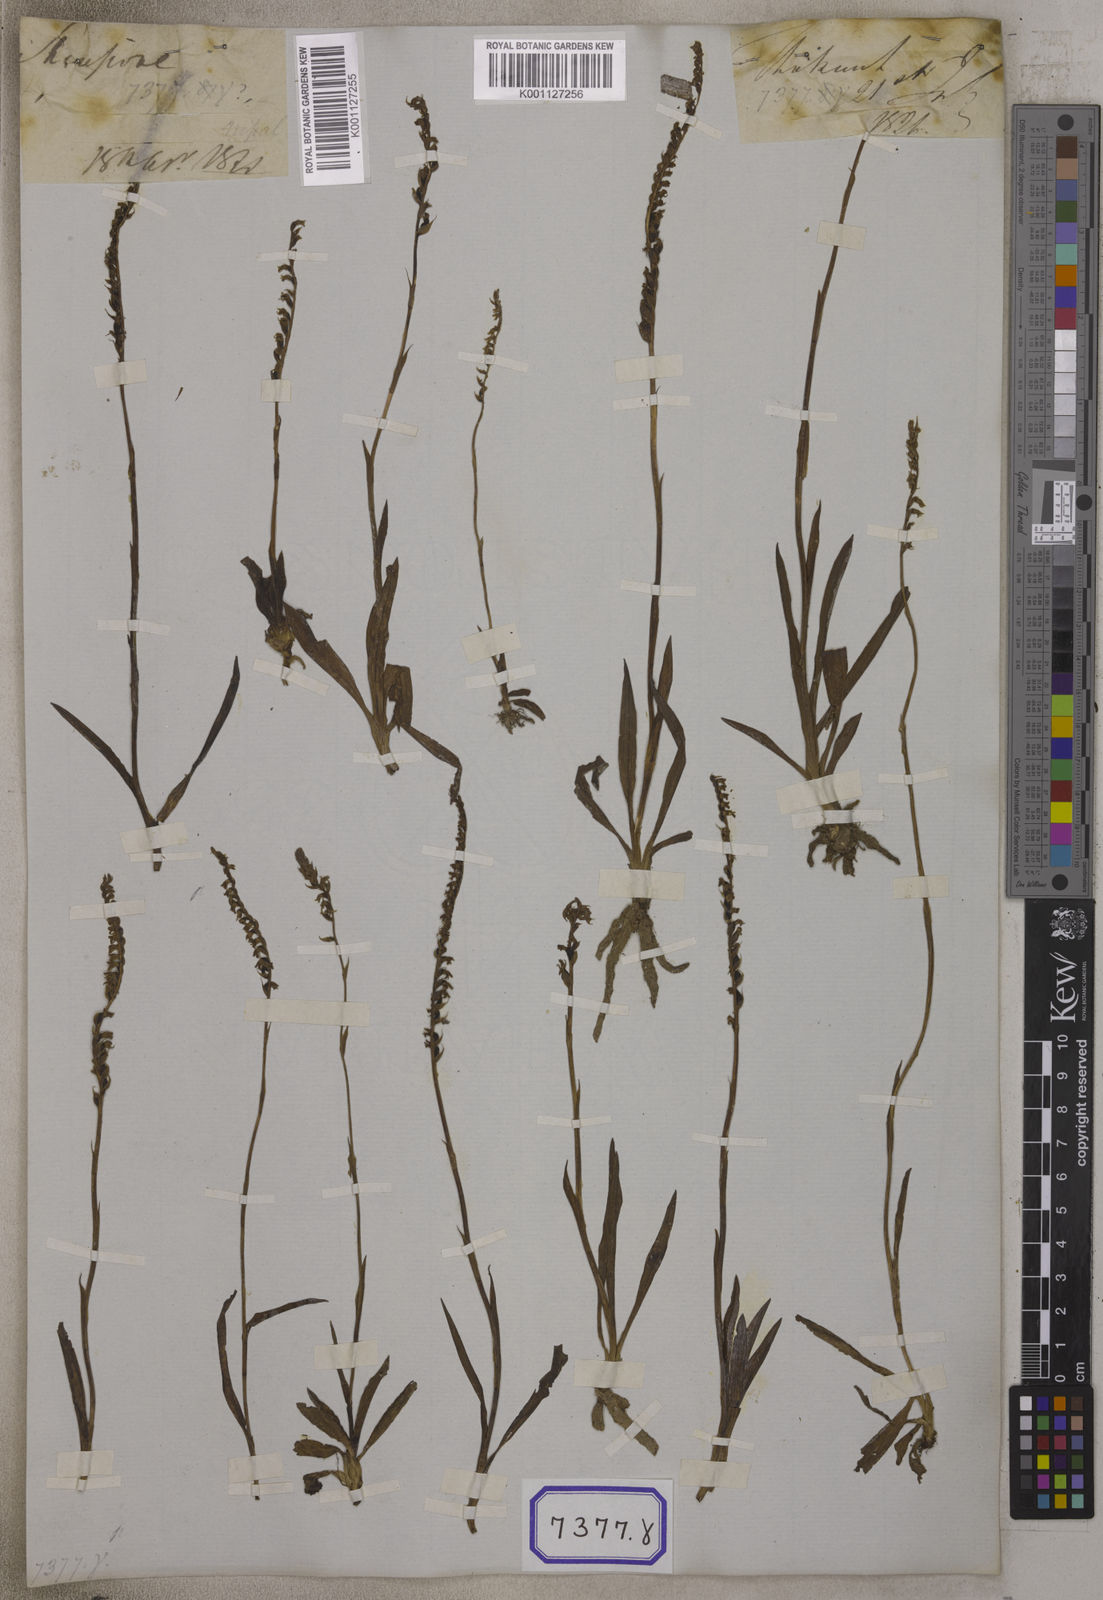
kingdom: Plantae
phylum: Tracheophyta
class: Liliopsida
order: Asparagales
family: Orchidaceae
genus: Spiranthes
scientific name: Spiranthes
